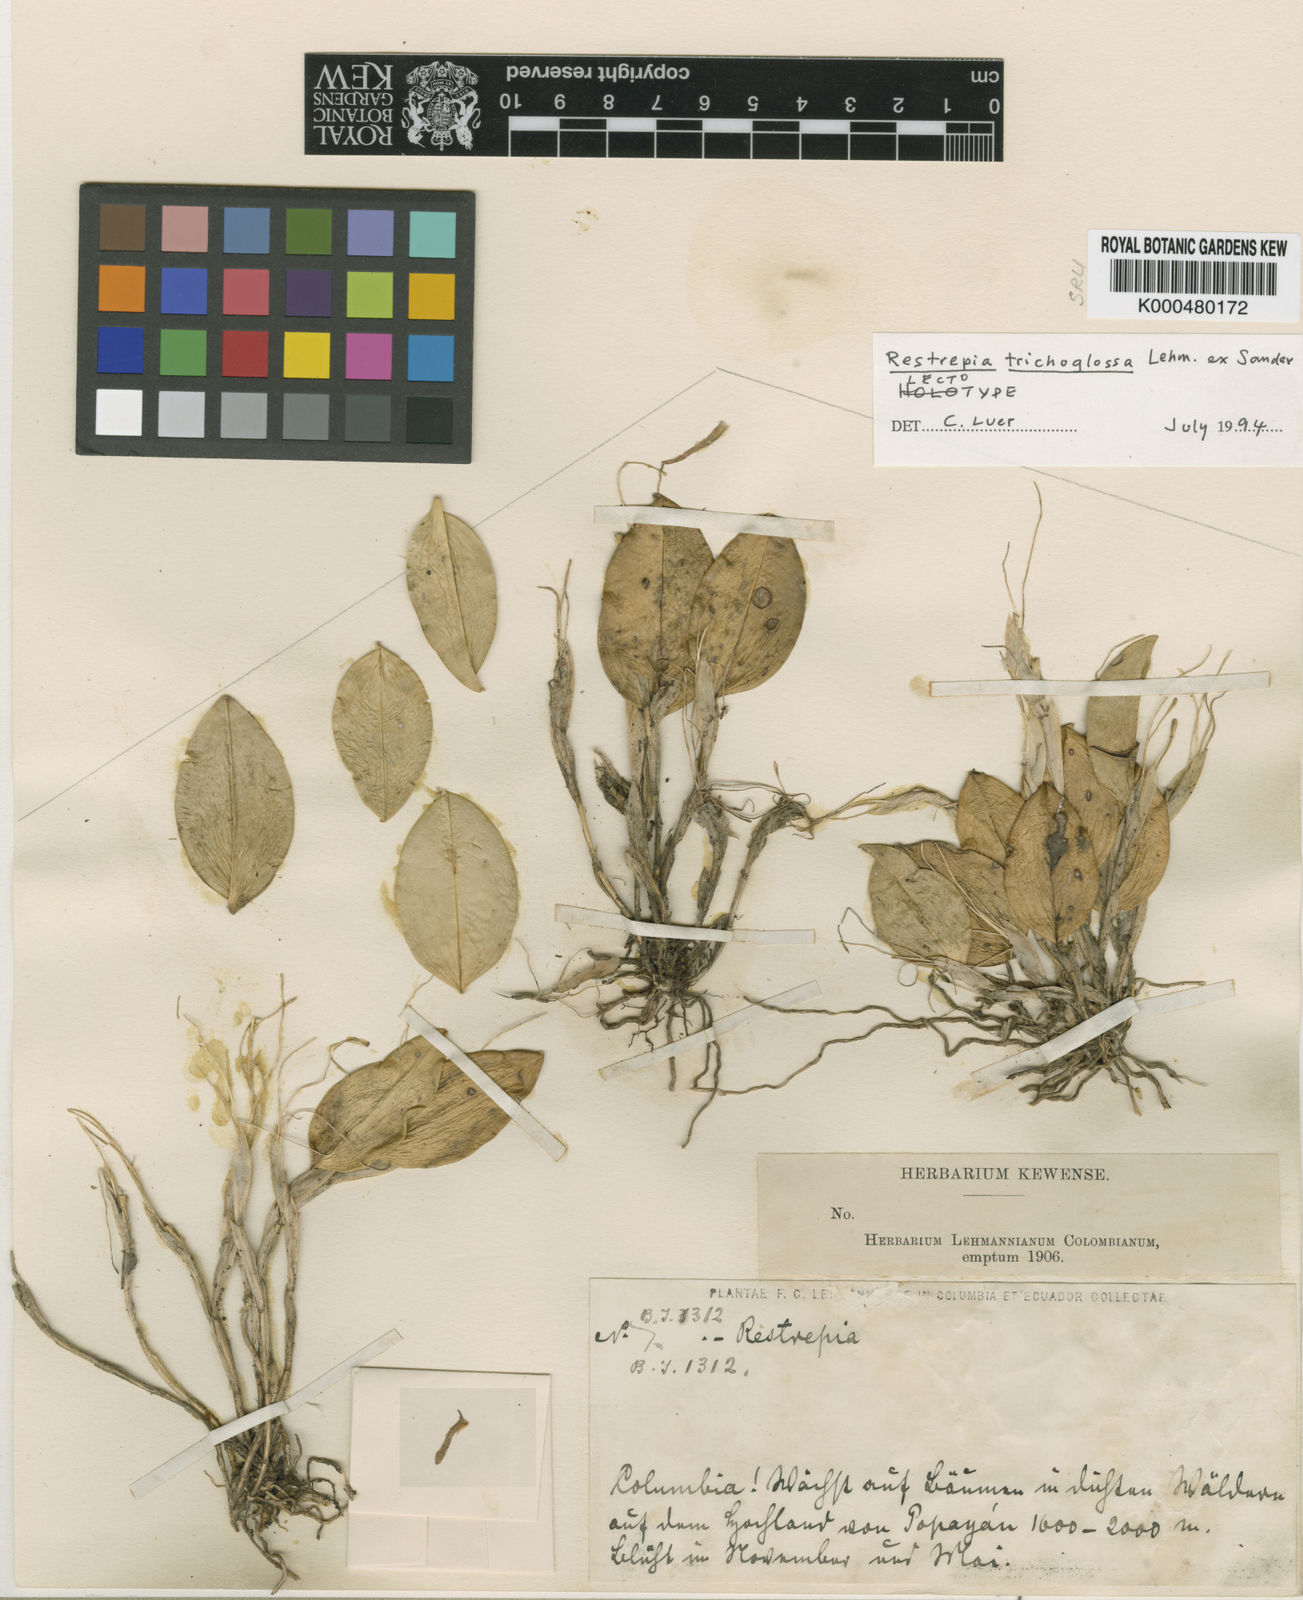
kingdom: Plantae
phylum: Tracheophyta
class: Liliopsida
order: Asparagales
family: Orchidaceae
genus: Pterostylis
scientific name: Pterostylis
